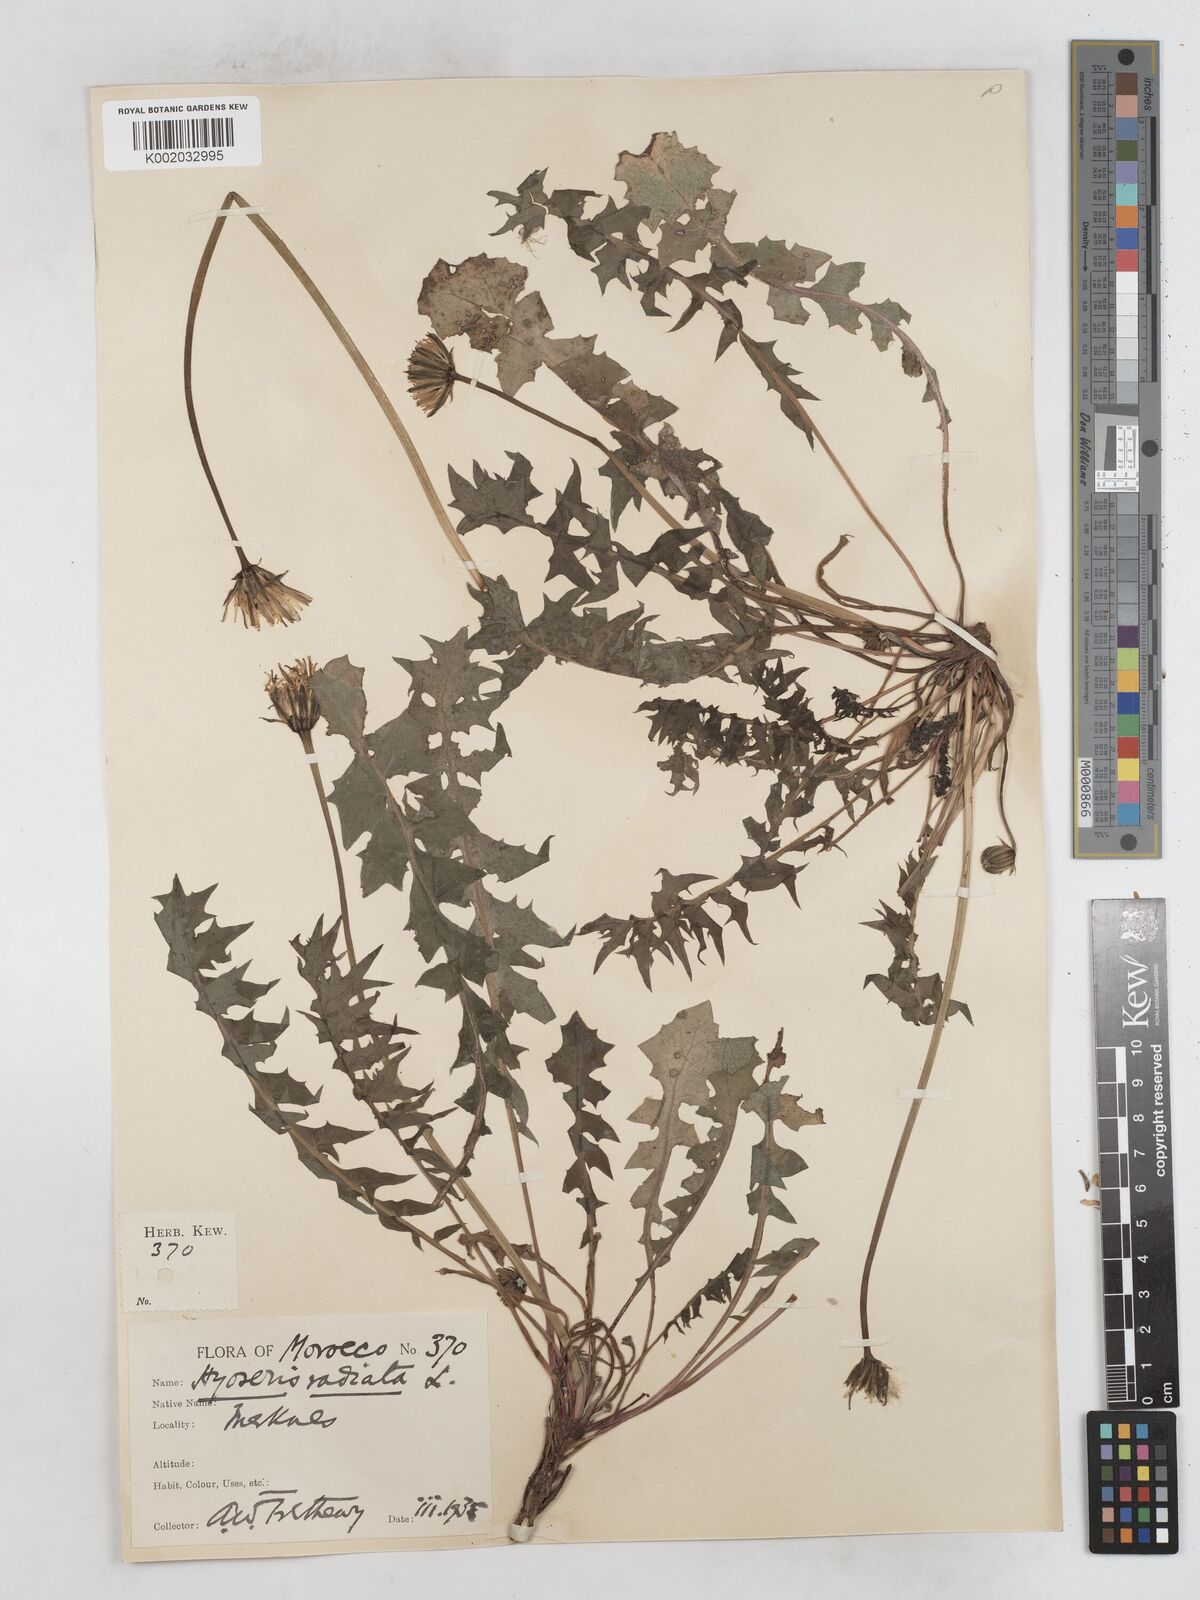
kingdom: Plantae
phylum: Tracheophyta
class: Magnoliopsida
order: Asterales
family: Asteraceae
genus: Hyoseris
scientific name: Hyoseris radiata
